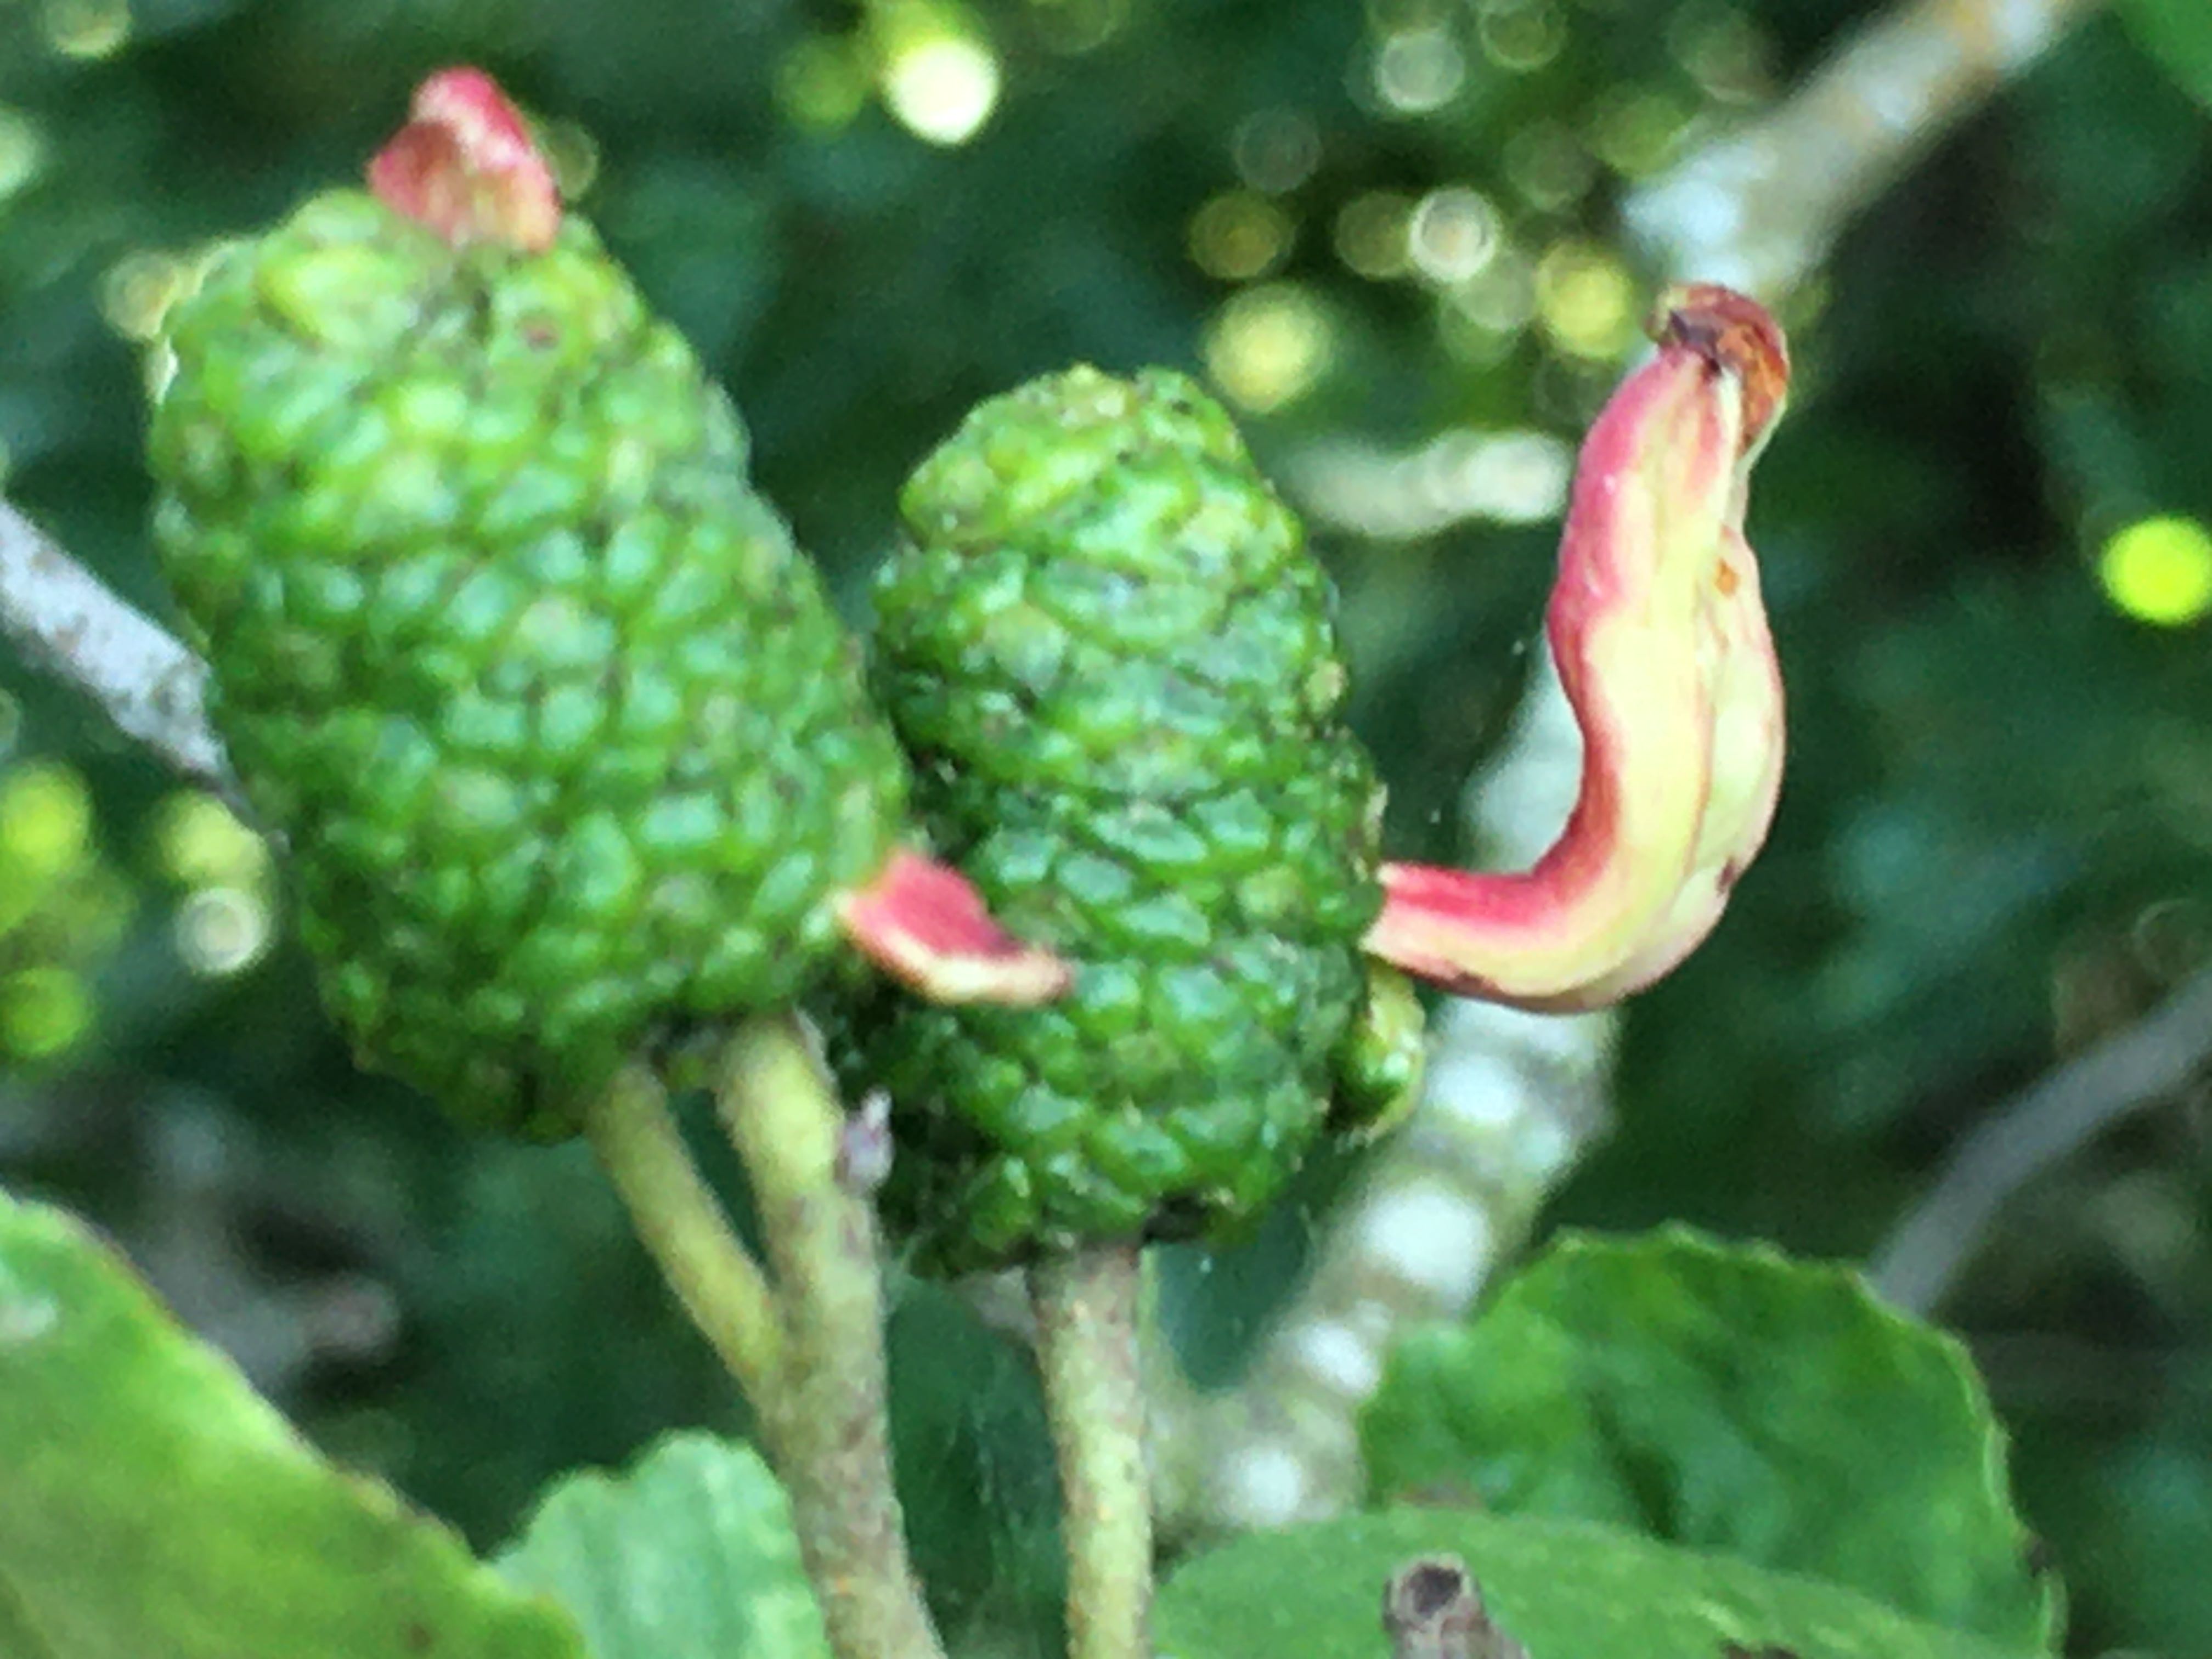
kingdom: Fungi
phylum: Ascomycota
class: Taphrinomycetes
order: Taphrinales
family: Taphrinaceae
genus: Taphrina
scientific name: Taphrina alni
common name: Alder tongue
